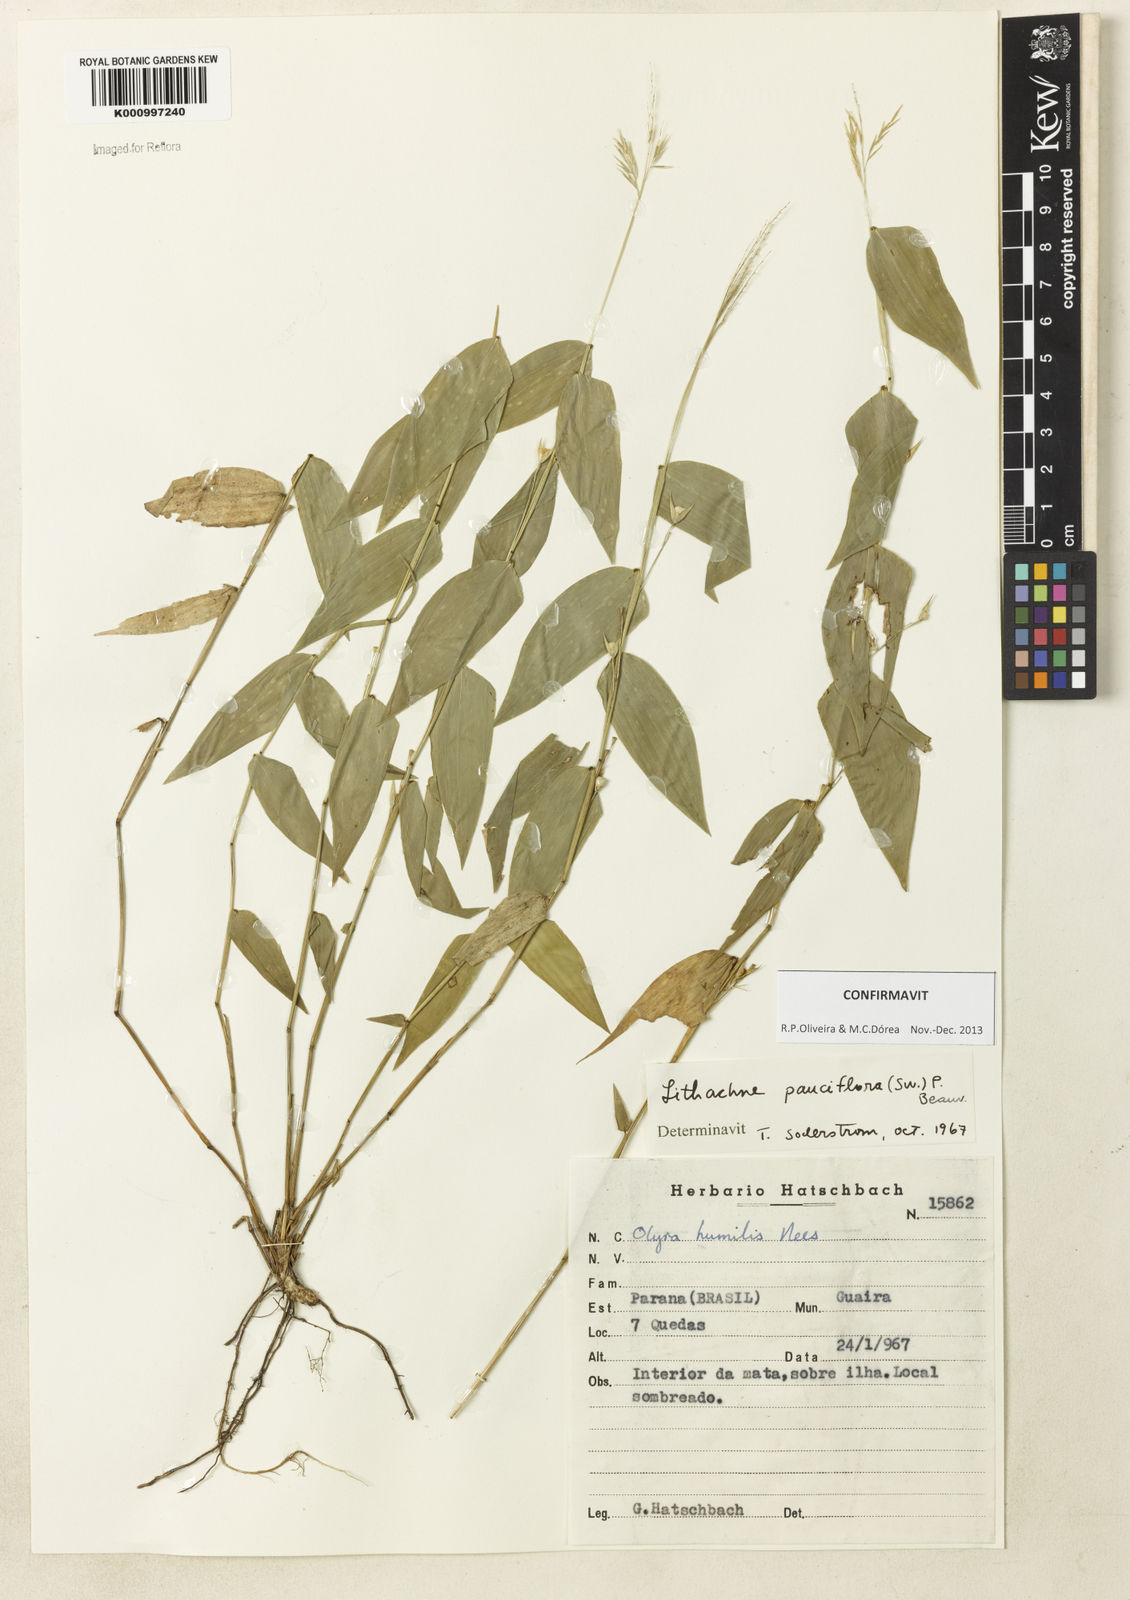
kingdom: Plantae
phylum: Tracheophyta
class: Liliopsida
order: Poales
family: Poaceae
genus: Lithachne
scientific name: Lithachne pauciflora
